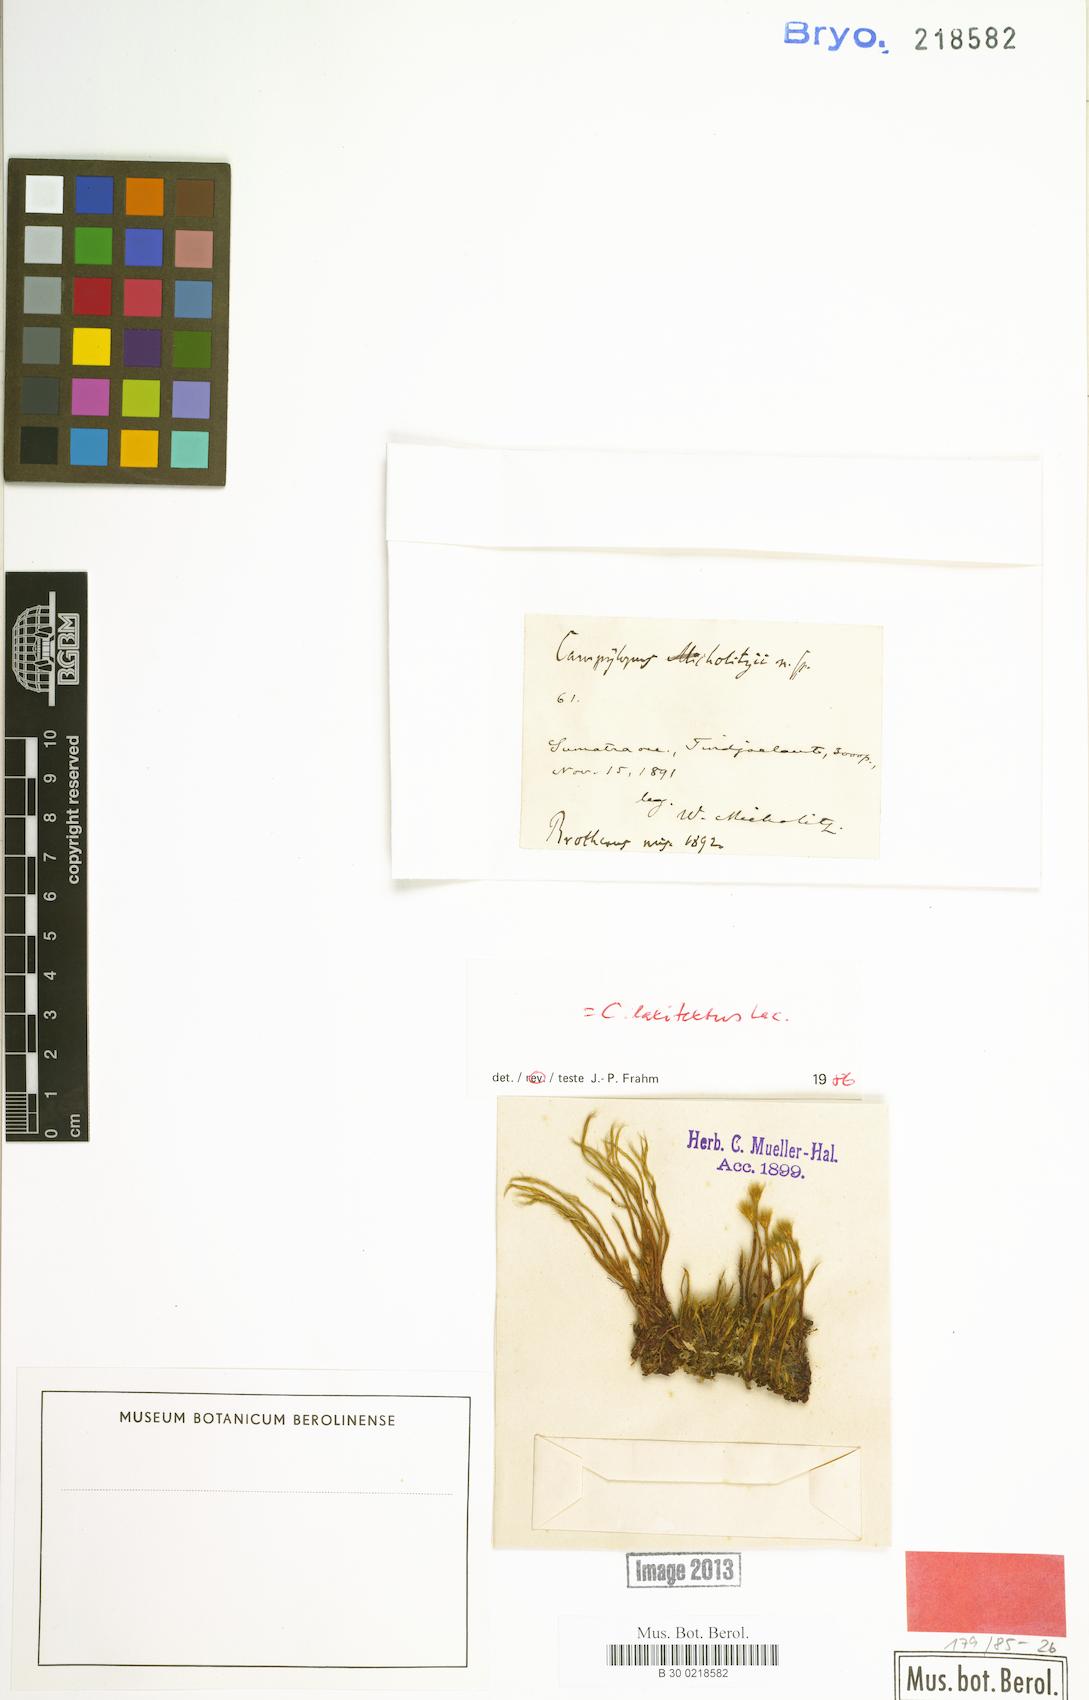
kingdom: Plantae
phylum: Bryophyta
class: Bryopsida
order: Dicranales
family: Leucobryaceae
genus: Campylopus
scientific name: Campylopus laxitextus
